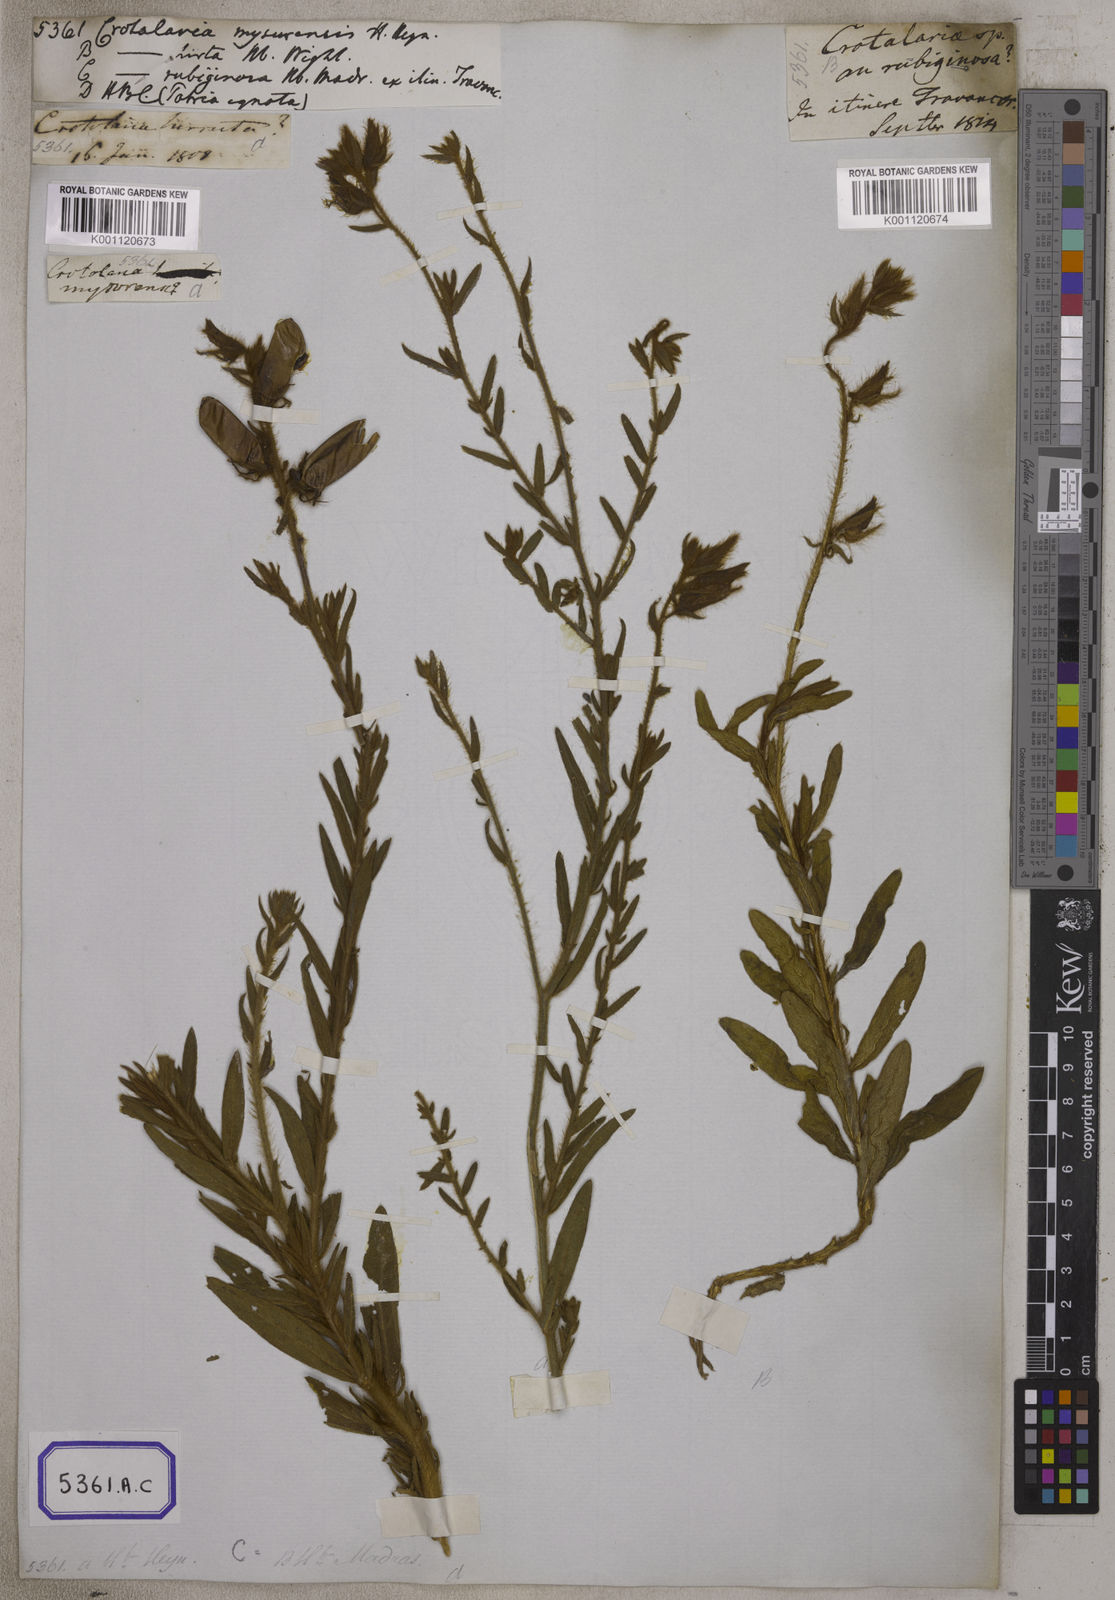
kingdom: Plantae
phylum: Tracheophyta
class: Magnoliopsida
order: Fabales
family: Fabaceae
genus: Crotalaria
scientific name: Crotalaria mysorensis
